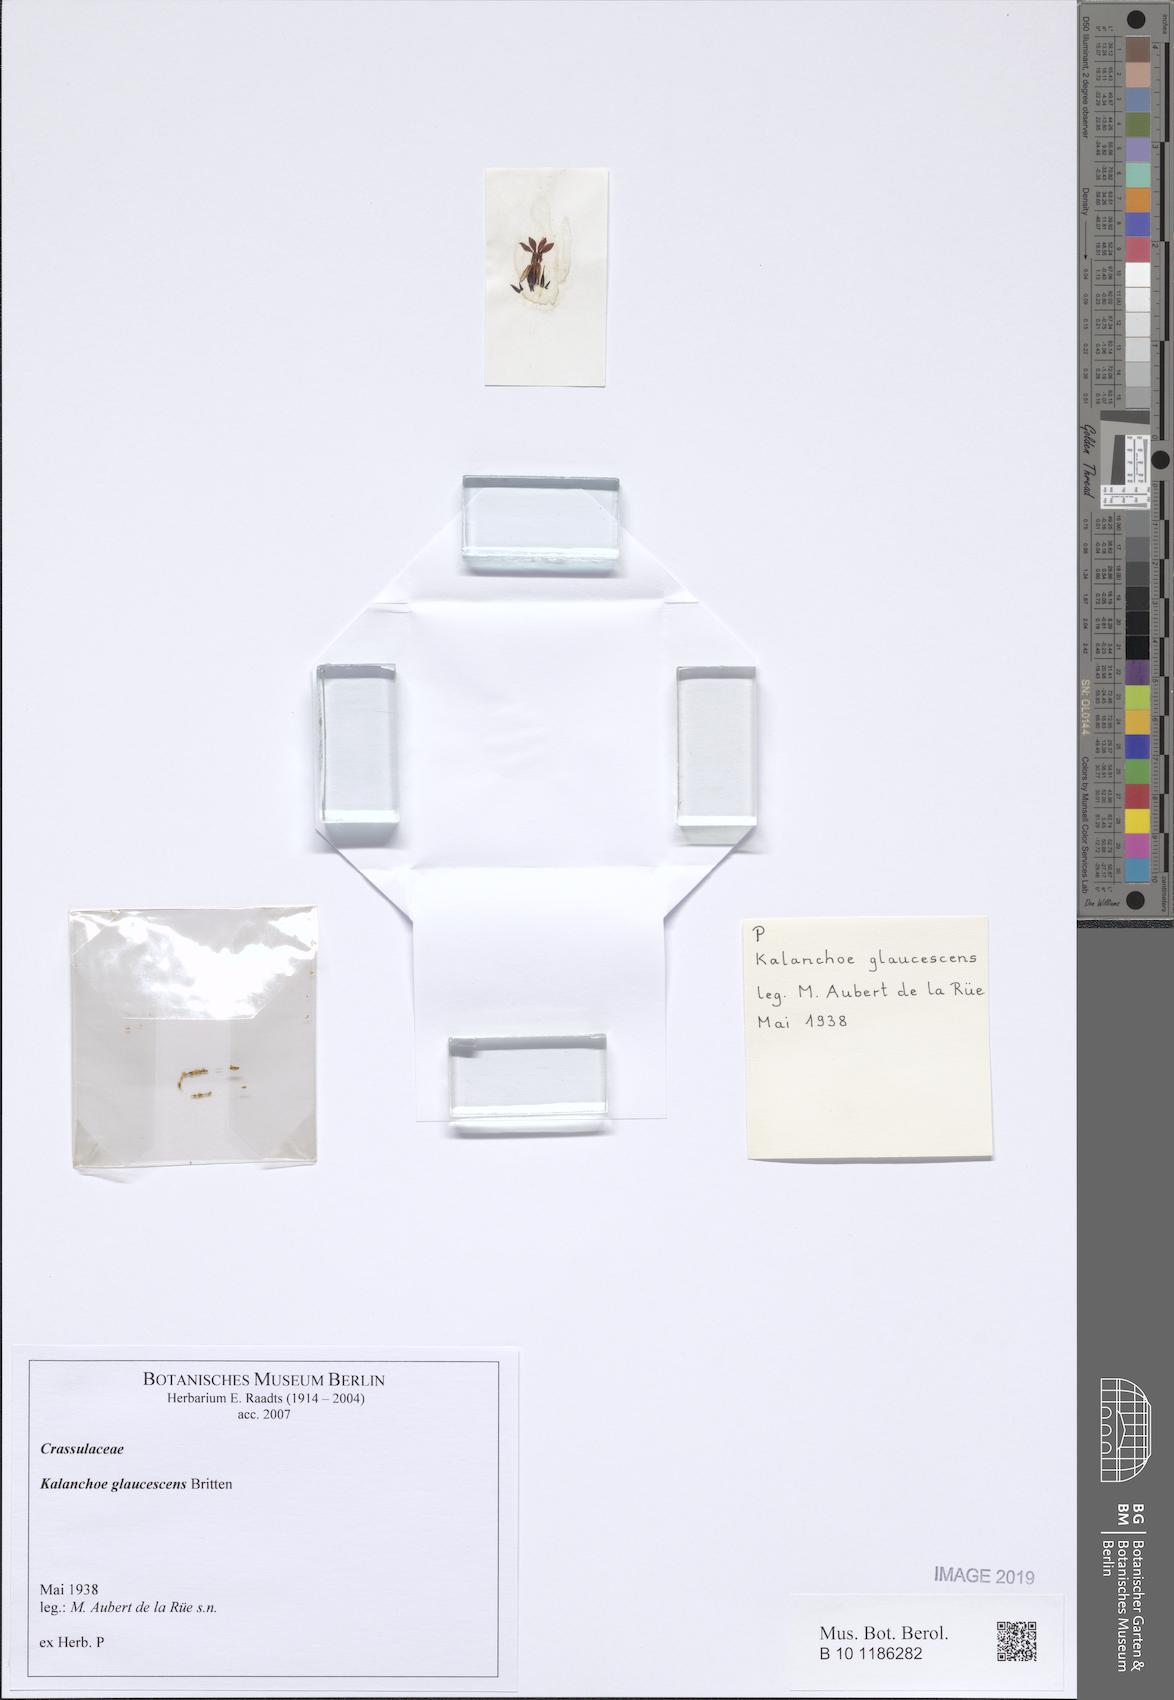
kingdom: Plantae
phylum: Tracheophyta
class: Magnoliopsida
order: Saxifragales
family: Crassulaceae
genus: Kalanchoe
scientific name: Kalanchoe glaucescens
